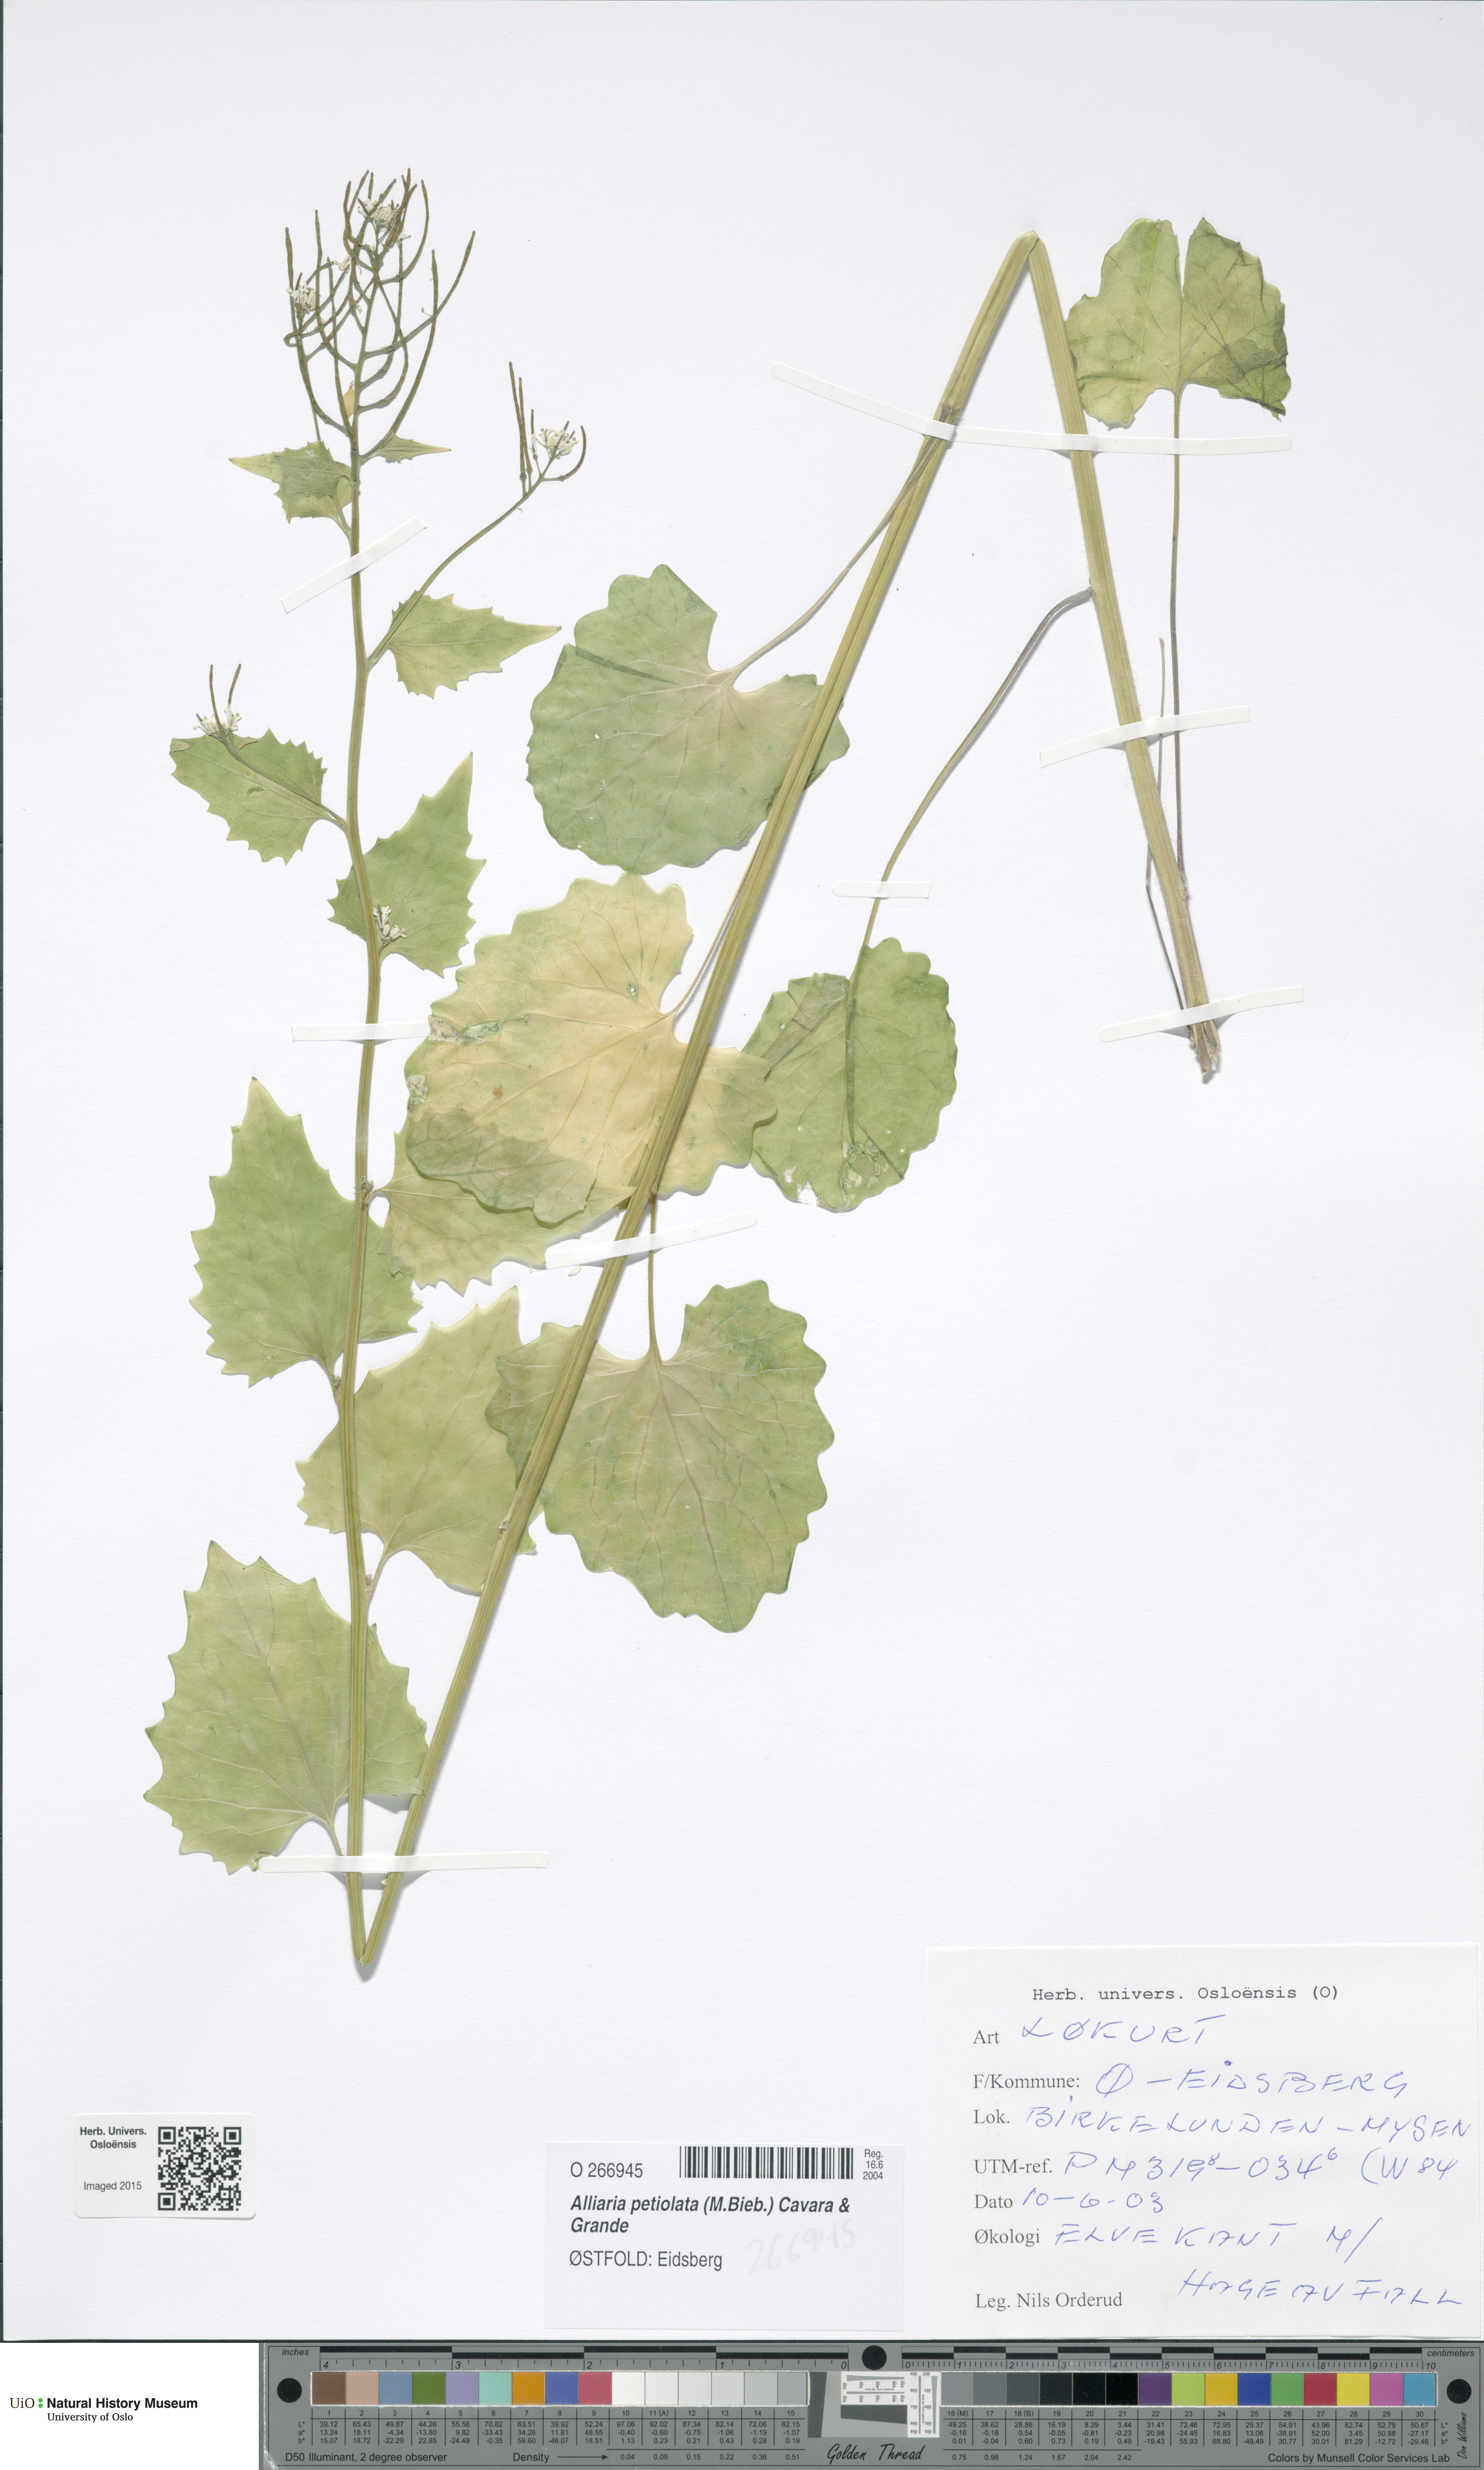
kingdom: Plantae
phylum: Tracheophyta
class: Magnoliopsida
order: Brassicales
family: Brassicaceae
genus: Alliaria
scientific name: Alliaria petiolata
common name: Garlic mustard
